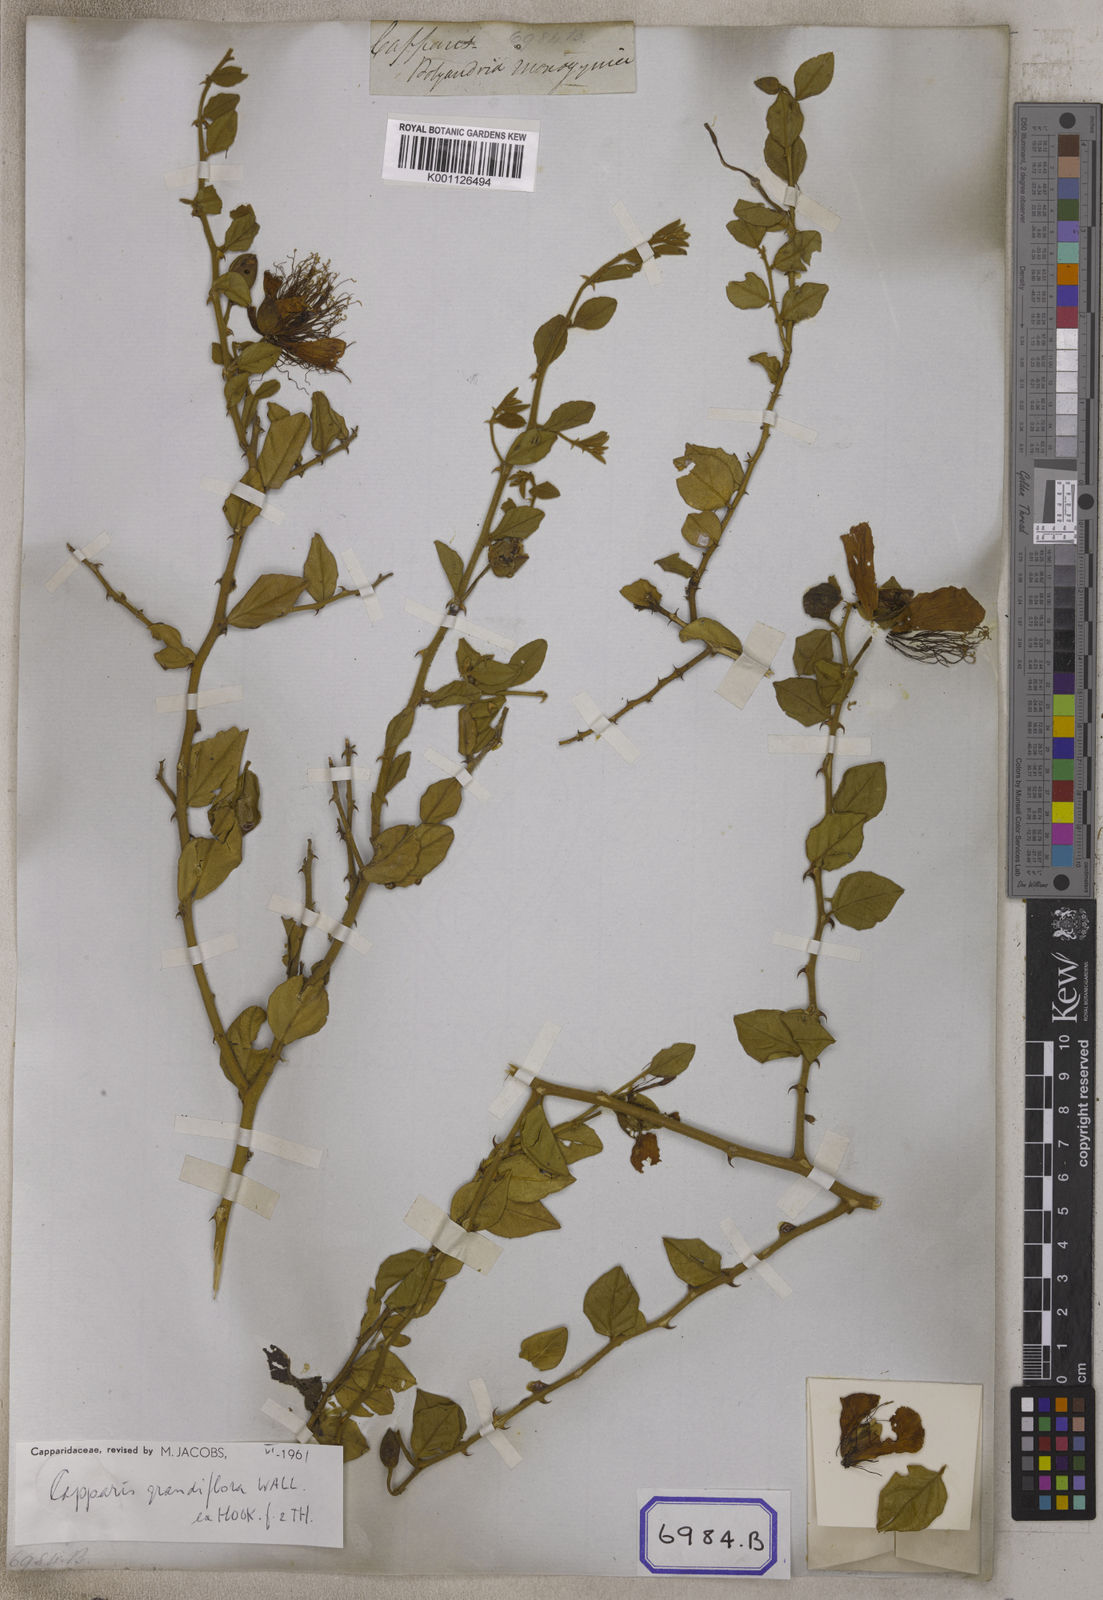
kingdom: Plantae
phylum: Tracheophyta
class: Magnoliopsida
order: Brassicales
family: Capparaceae
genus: Capparis
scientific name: Capparis
